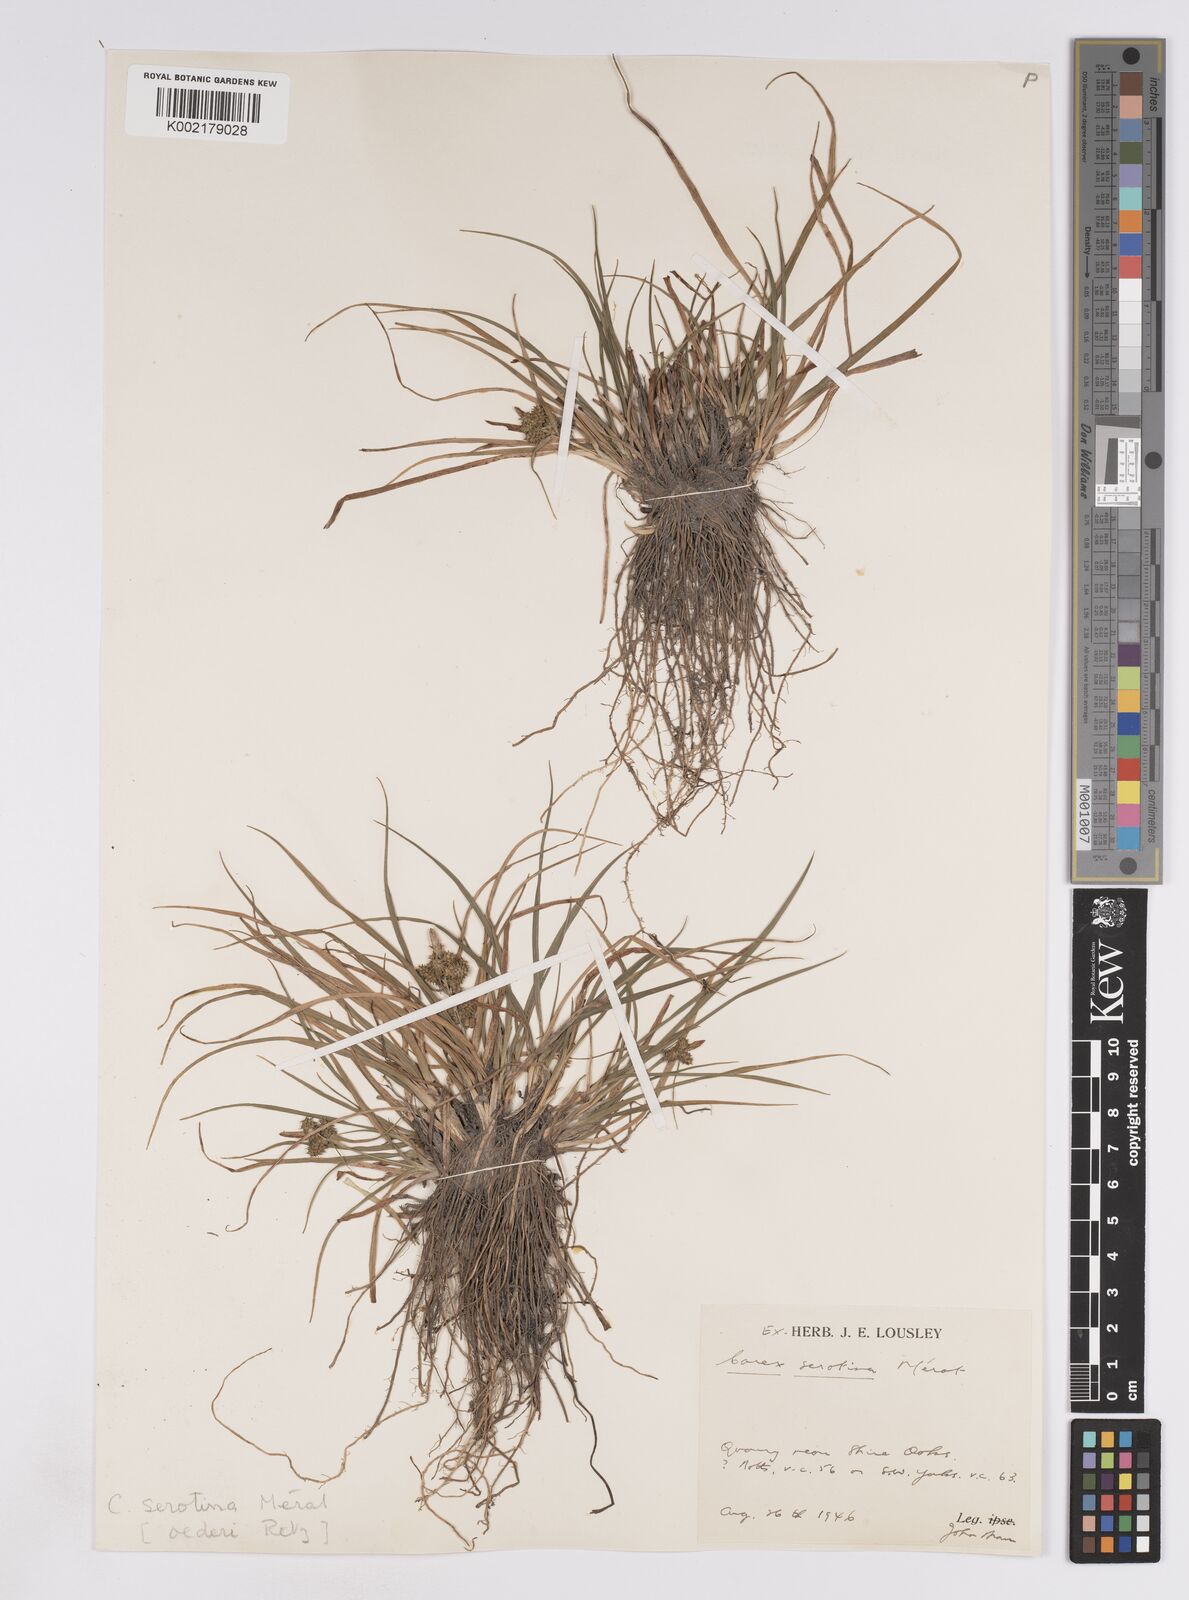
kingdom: Plantae
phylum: Tracheophyta
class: Liliopsida
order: Poales
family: Cyperaceae
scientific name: Cyperaceae
